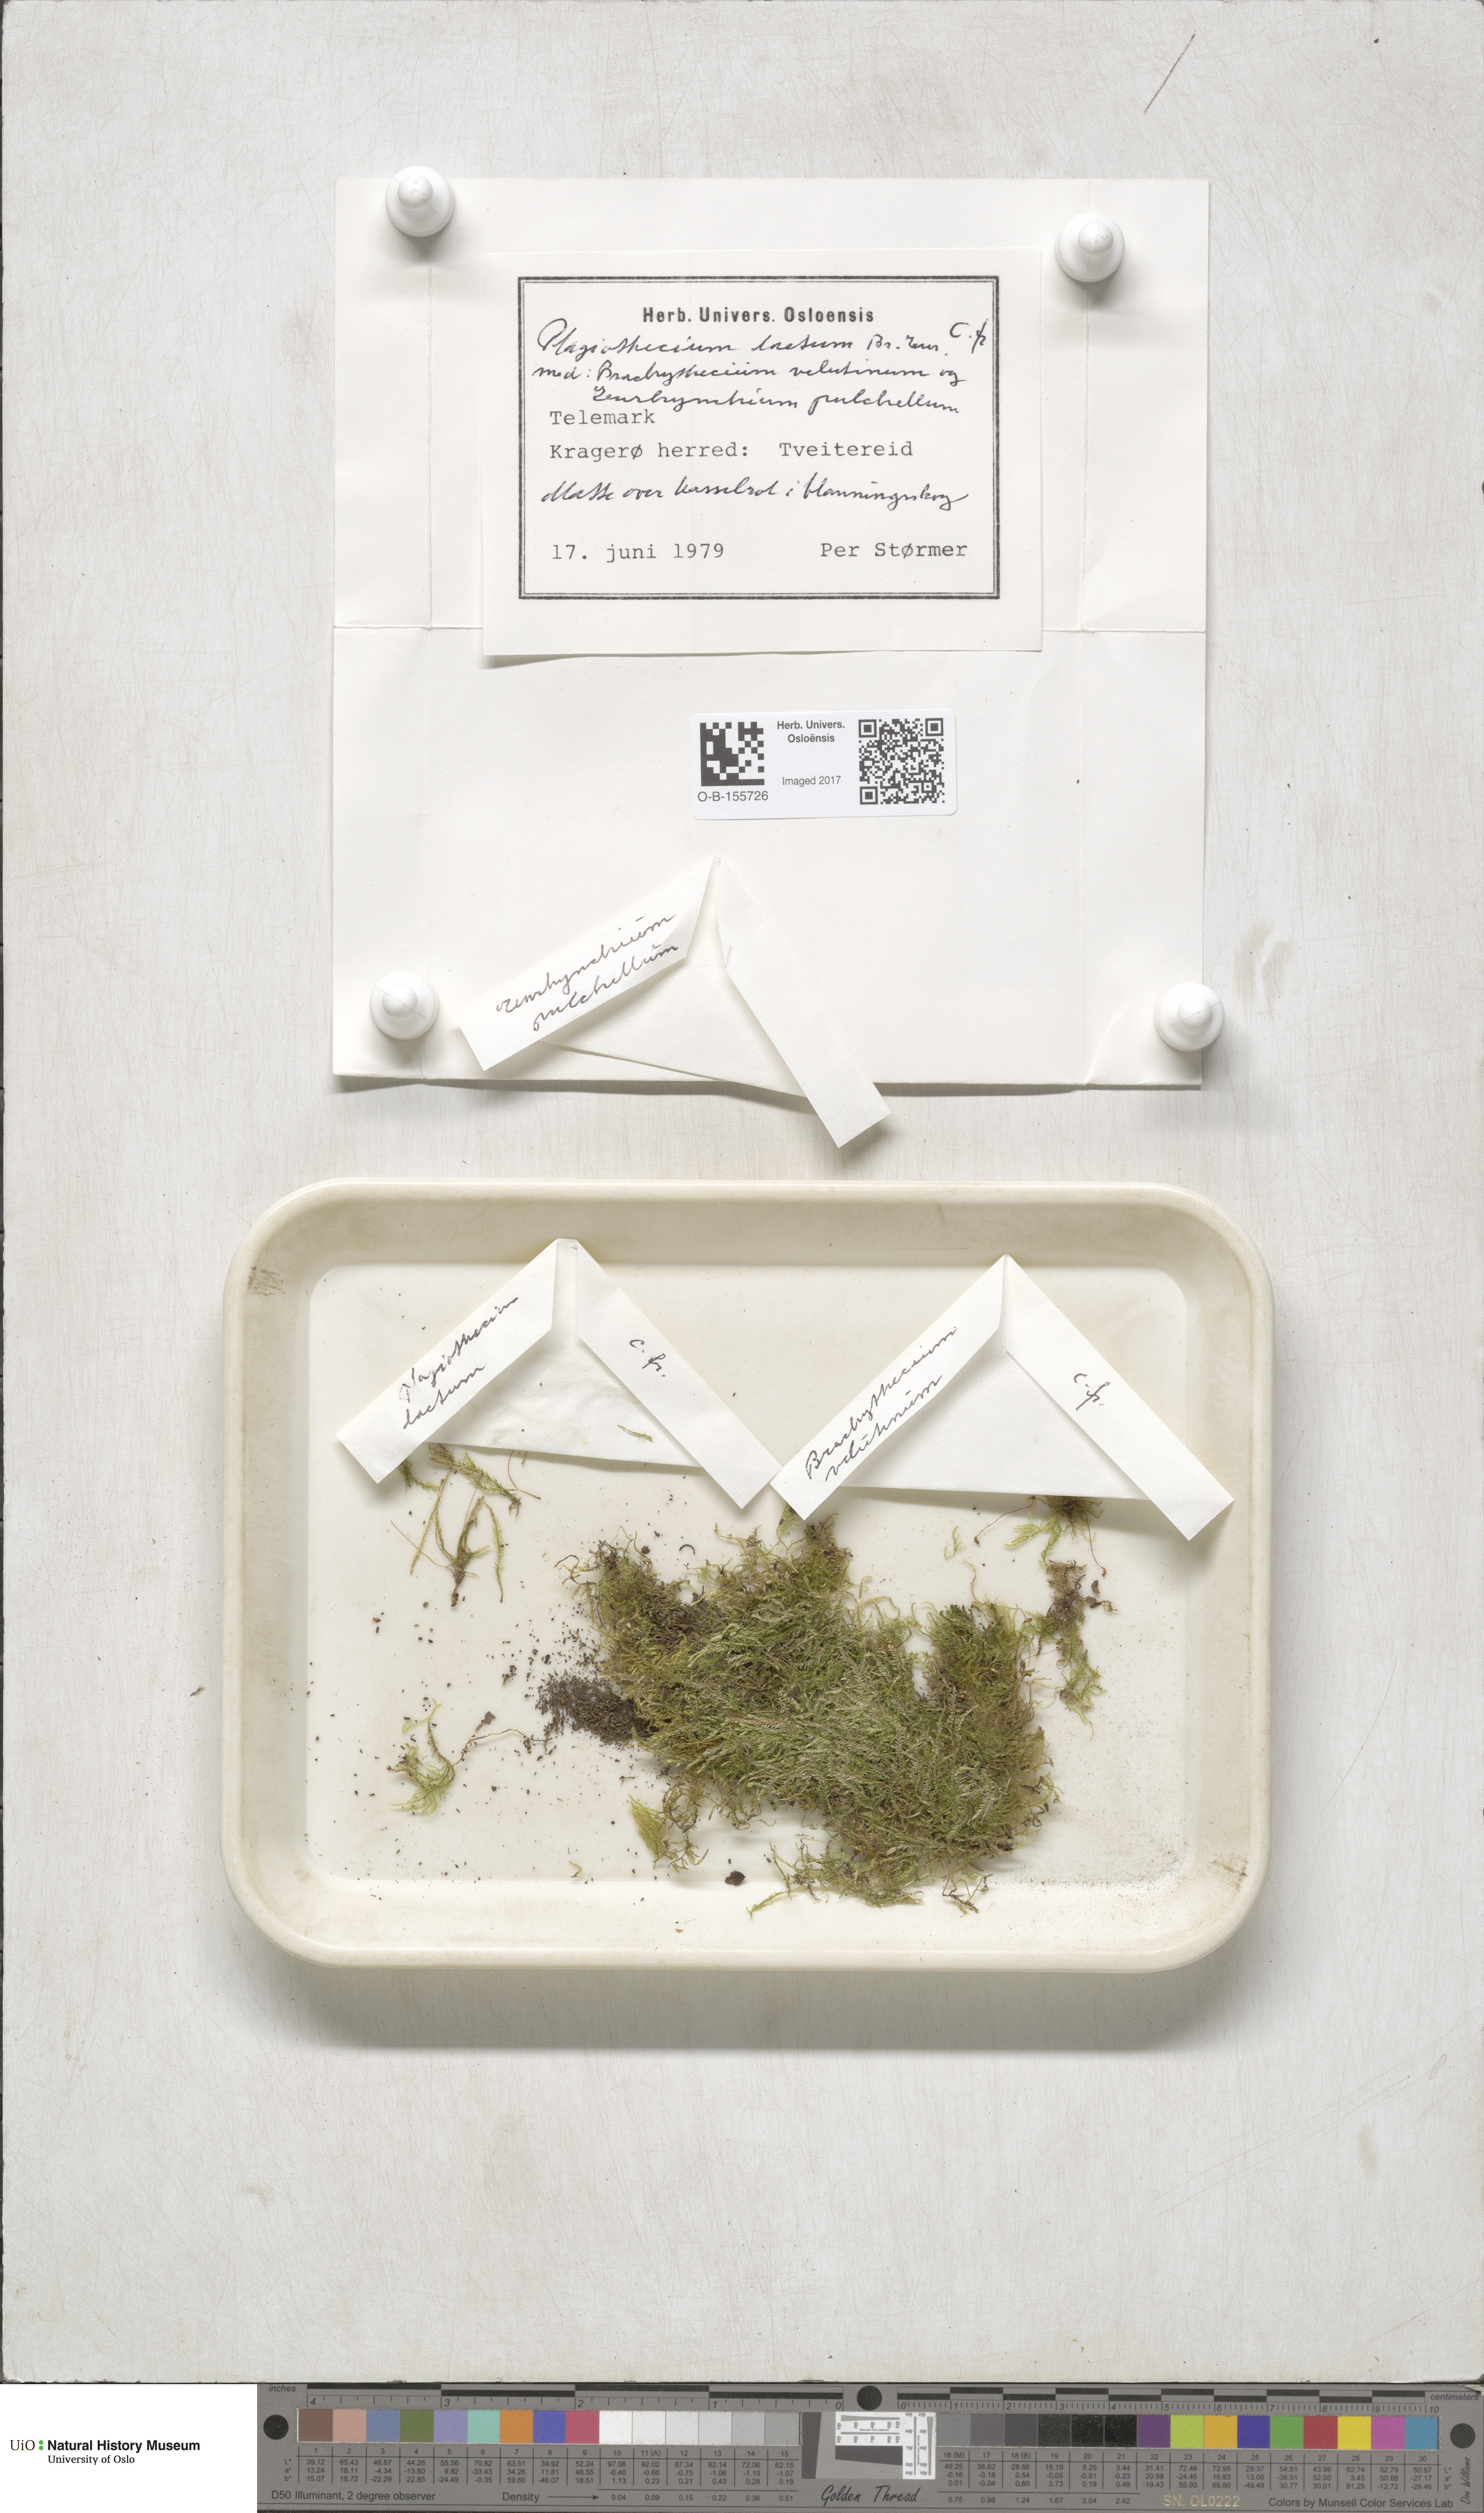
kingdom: Plantae
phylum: Bryophyta
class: Bryopsida
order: Hypnales
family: Plagiotheciaceae
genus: Plagiothecium
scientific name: Plagiothecium laetum
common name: Bright silk moss
